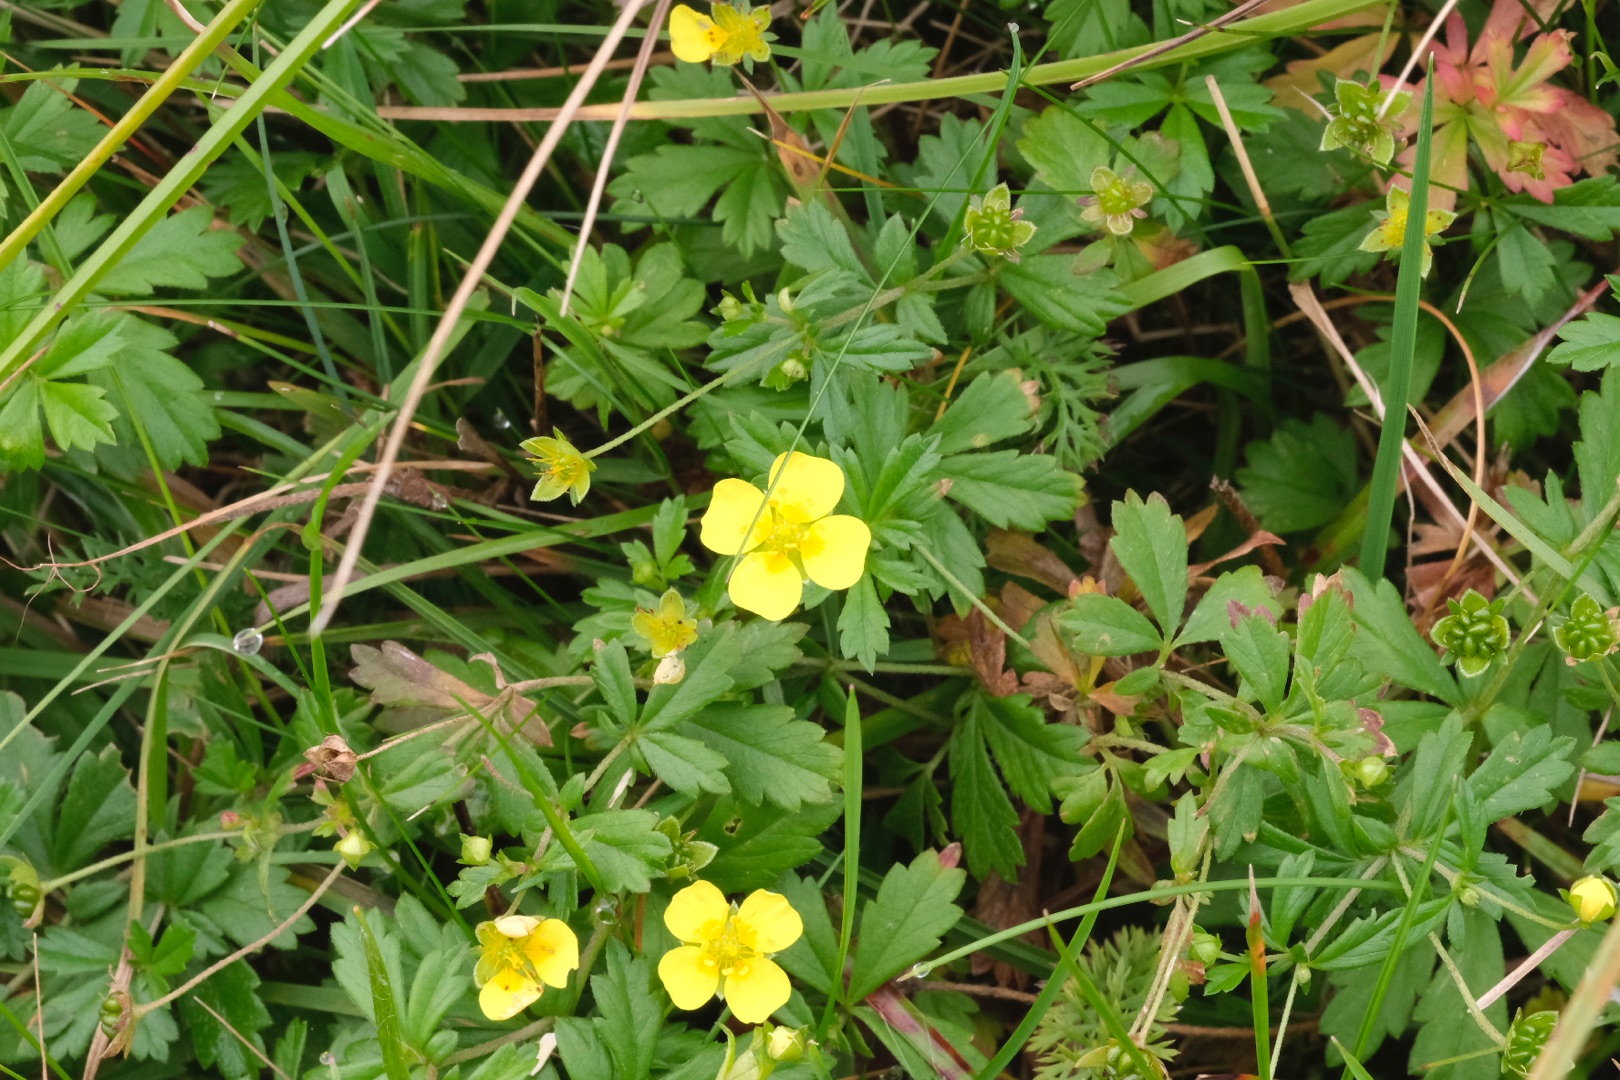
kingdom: Plantae
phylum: Tracheophyta
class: Magnoliopsida
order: Rosales
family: Rosaceae
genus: Potentilla
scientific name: Potentilla erecta
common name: Tormentil
